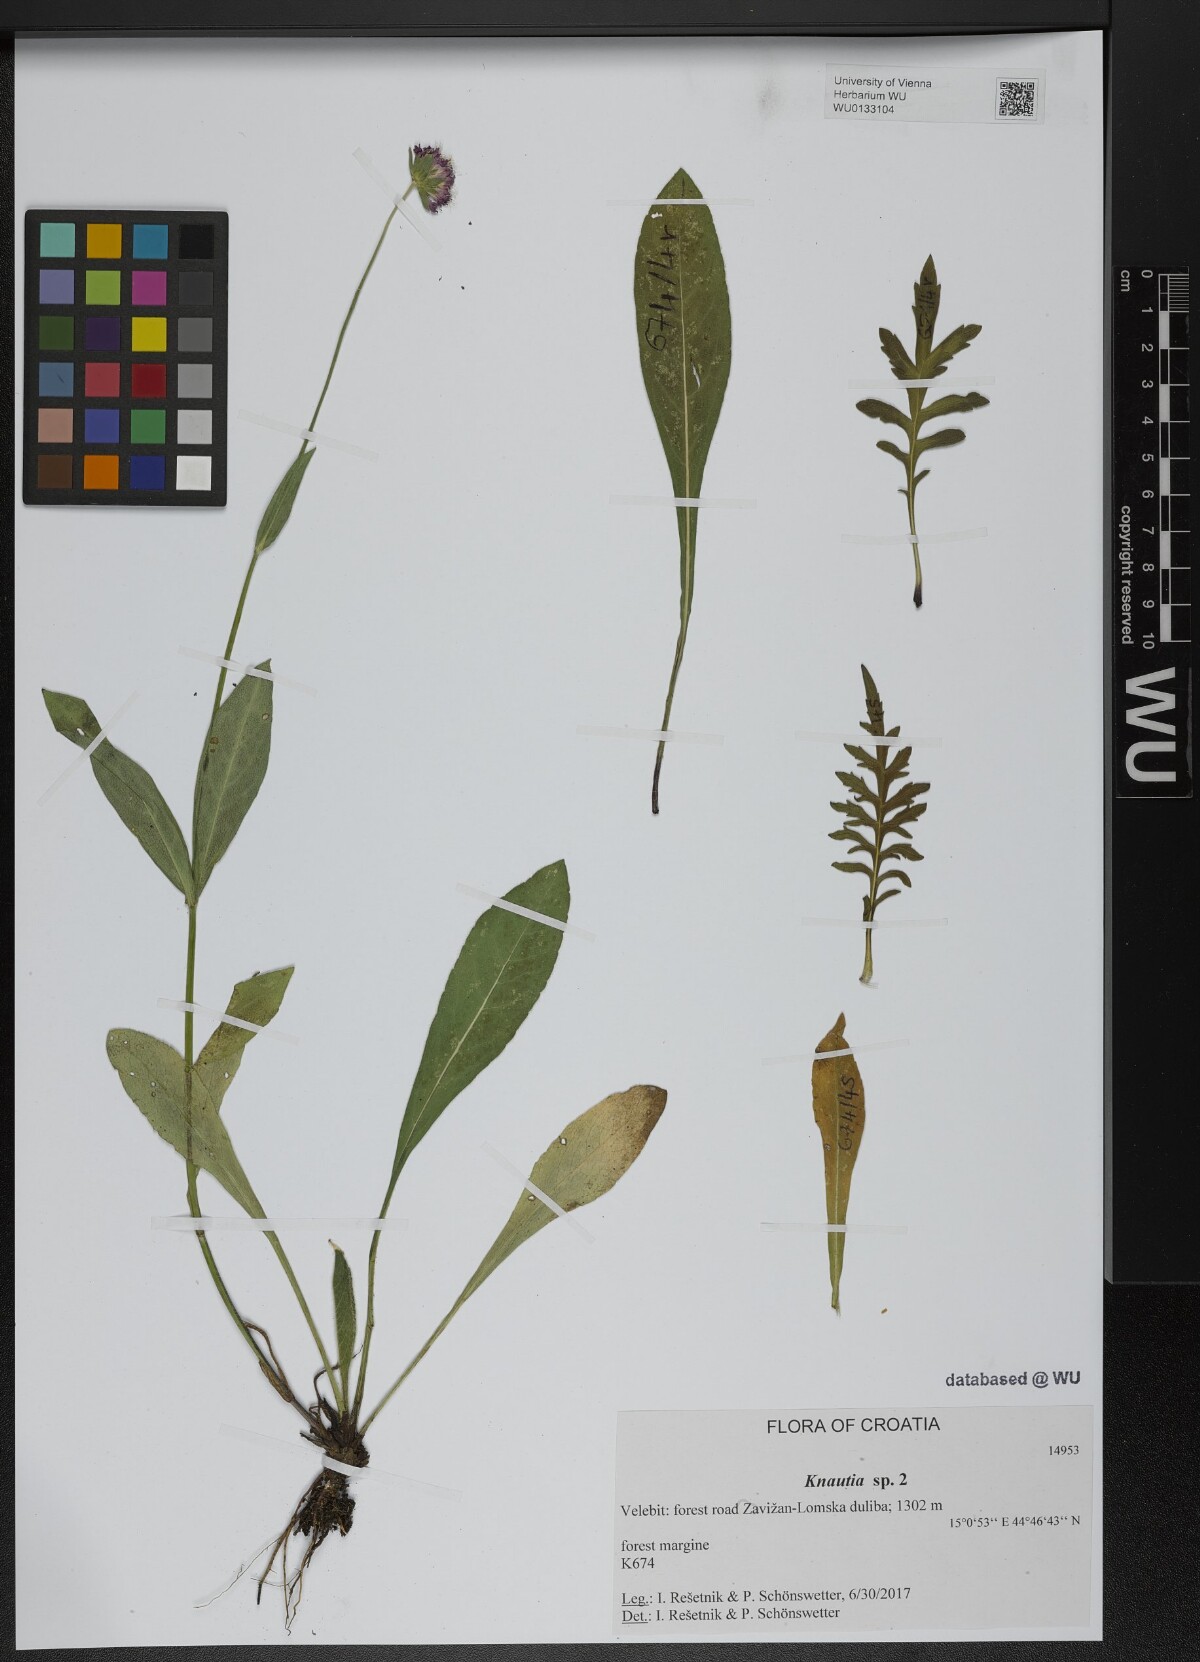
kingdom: Plantae
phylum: Tracheophyta
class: Magnoliopsida
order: Dipsacales
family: Caprifoliaceae
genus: Knautia
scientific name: Knautia
